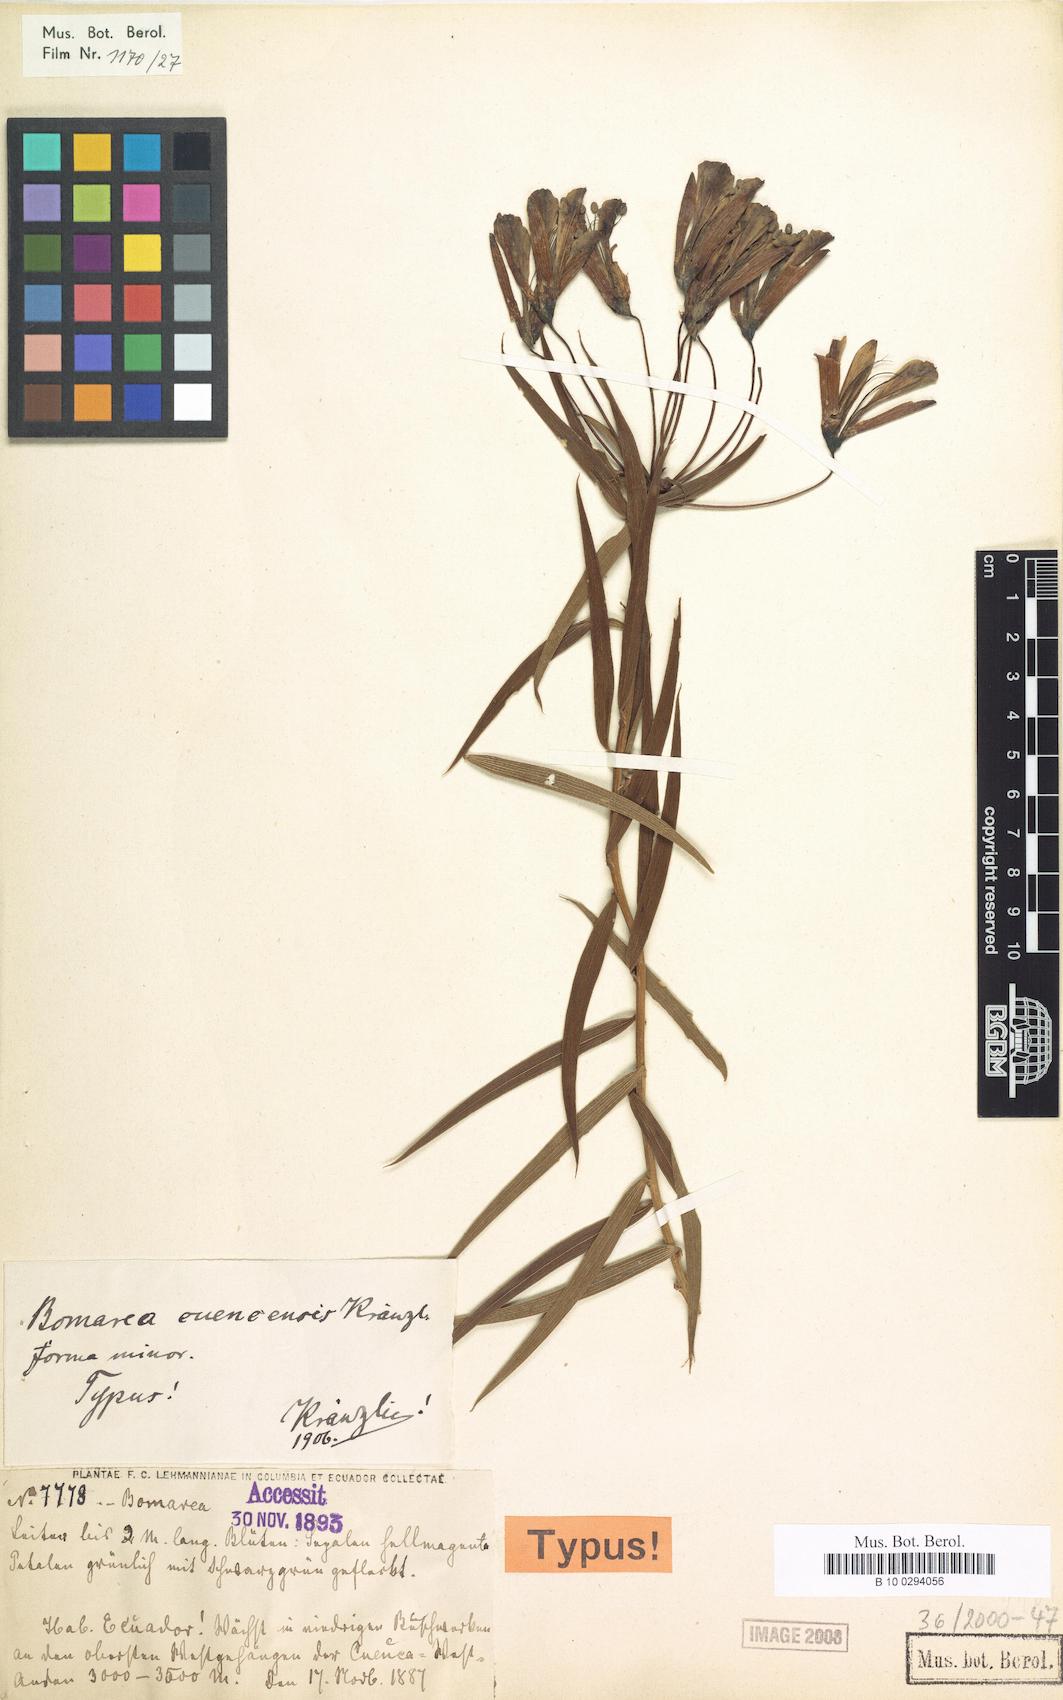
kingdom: Plantae
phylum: Tracheophyta
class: Liliopsida
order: Liliales
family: Alstroemeriaceae
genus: Bomarea
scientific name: Bomarea angulata
